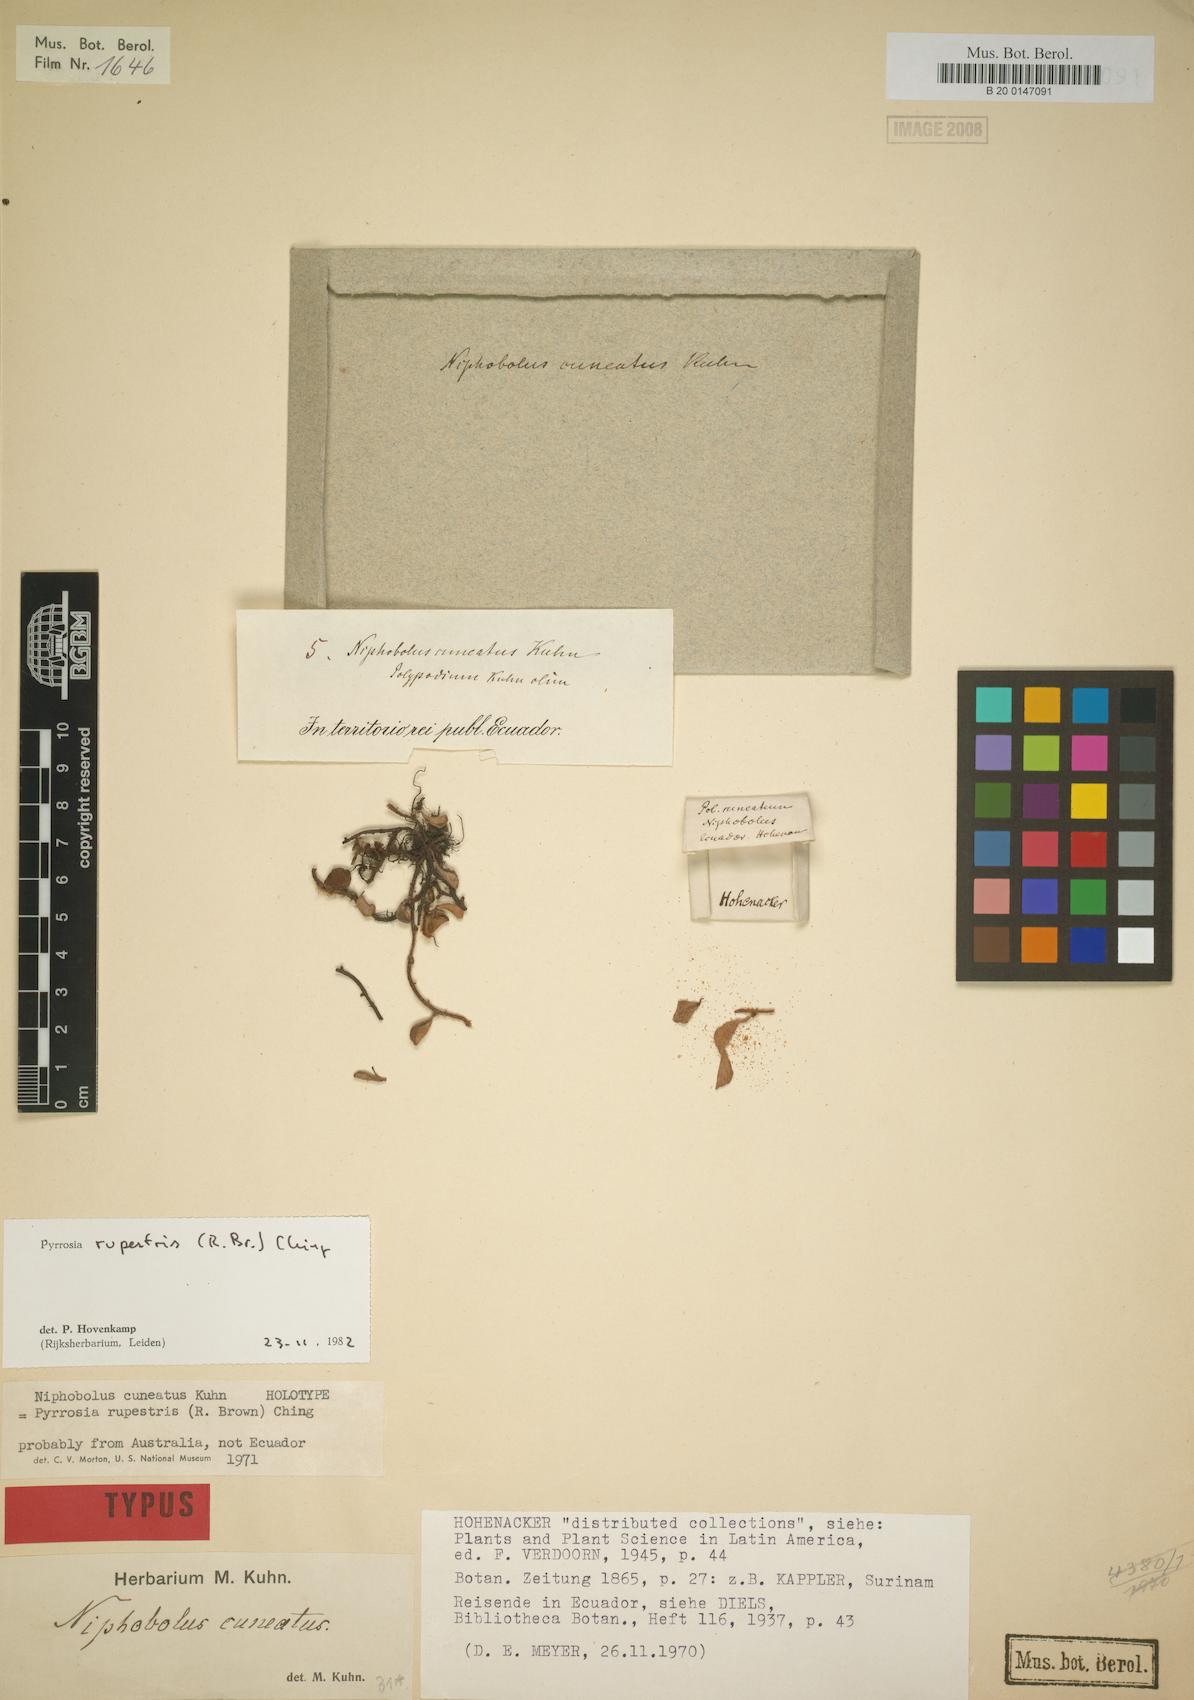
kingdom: Plantae
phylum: Tracheophyta
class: Polypodiopsida
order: Polypodiales
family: Polypodiaceae
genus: Pyrrosia
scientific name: Pyrrosia rupestris
